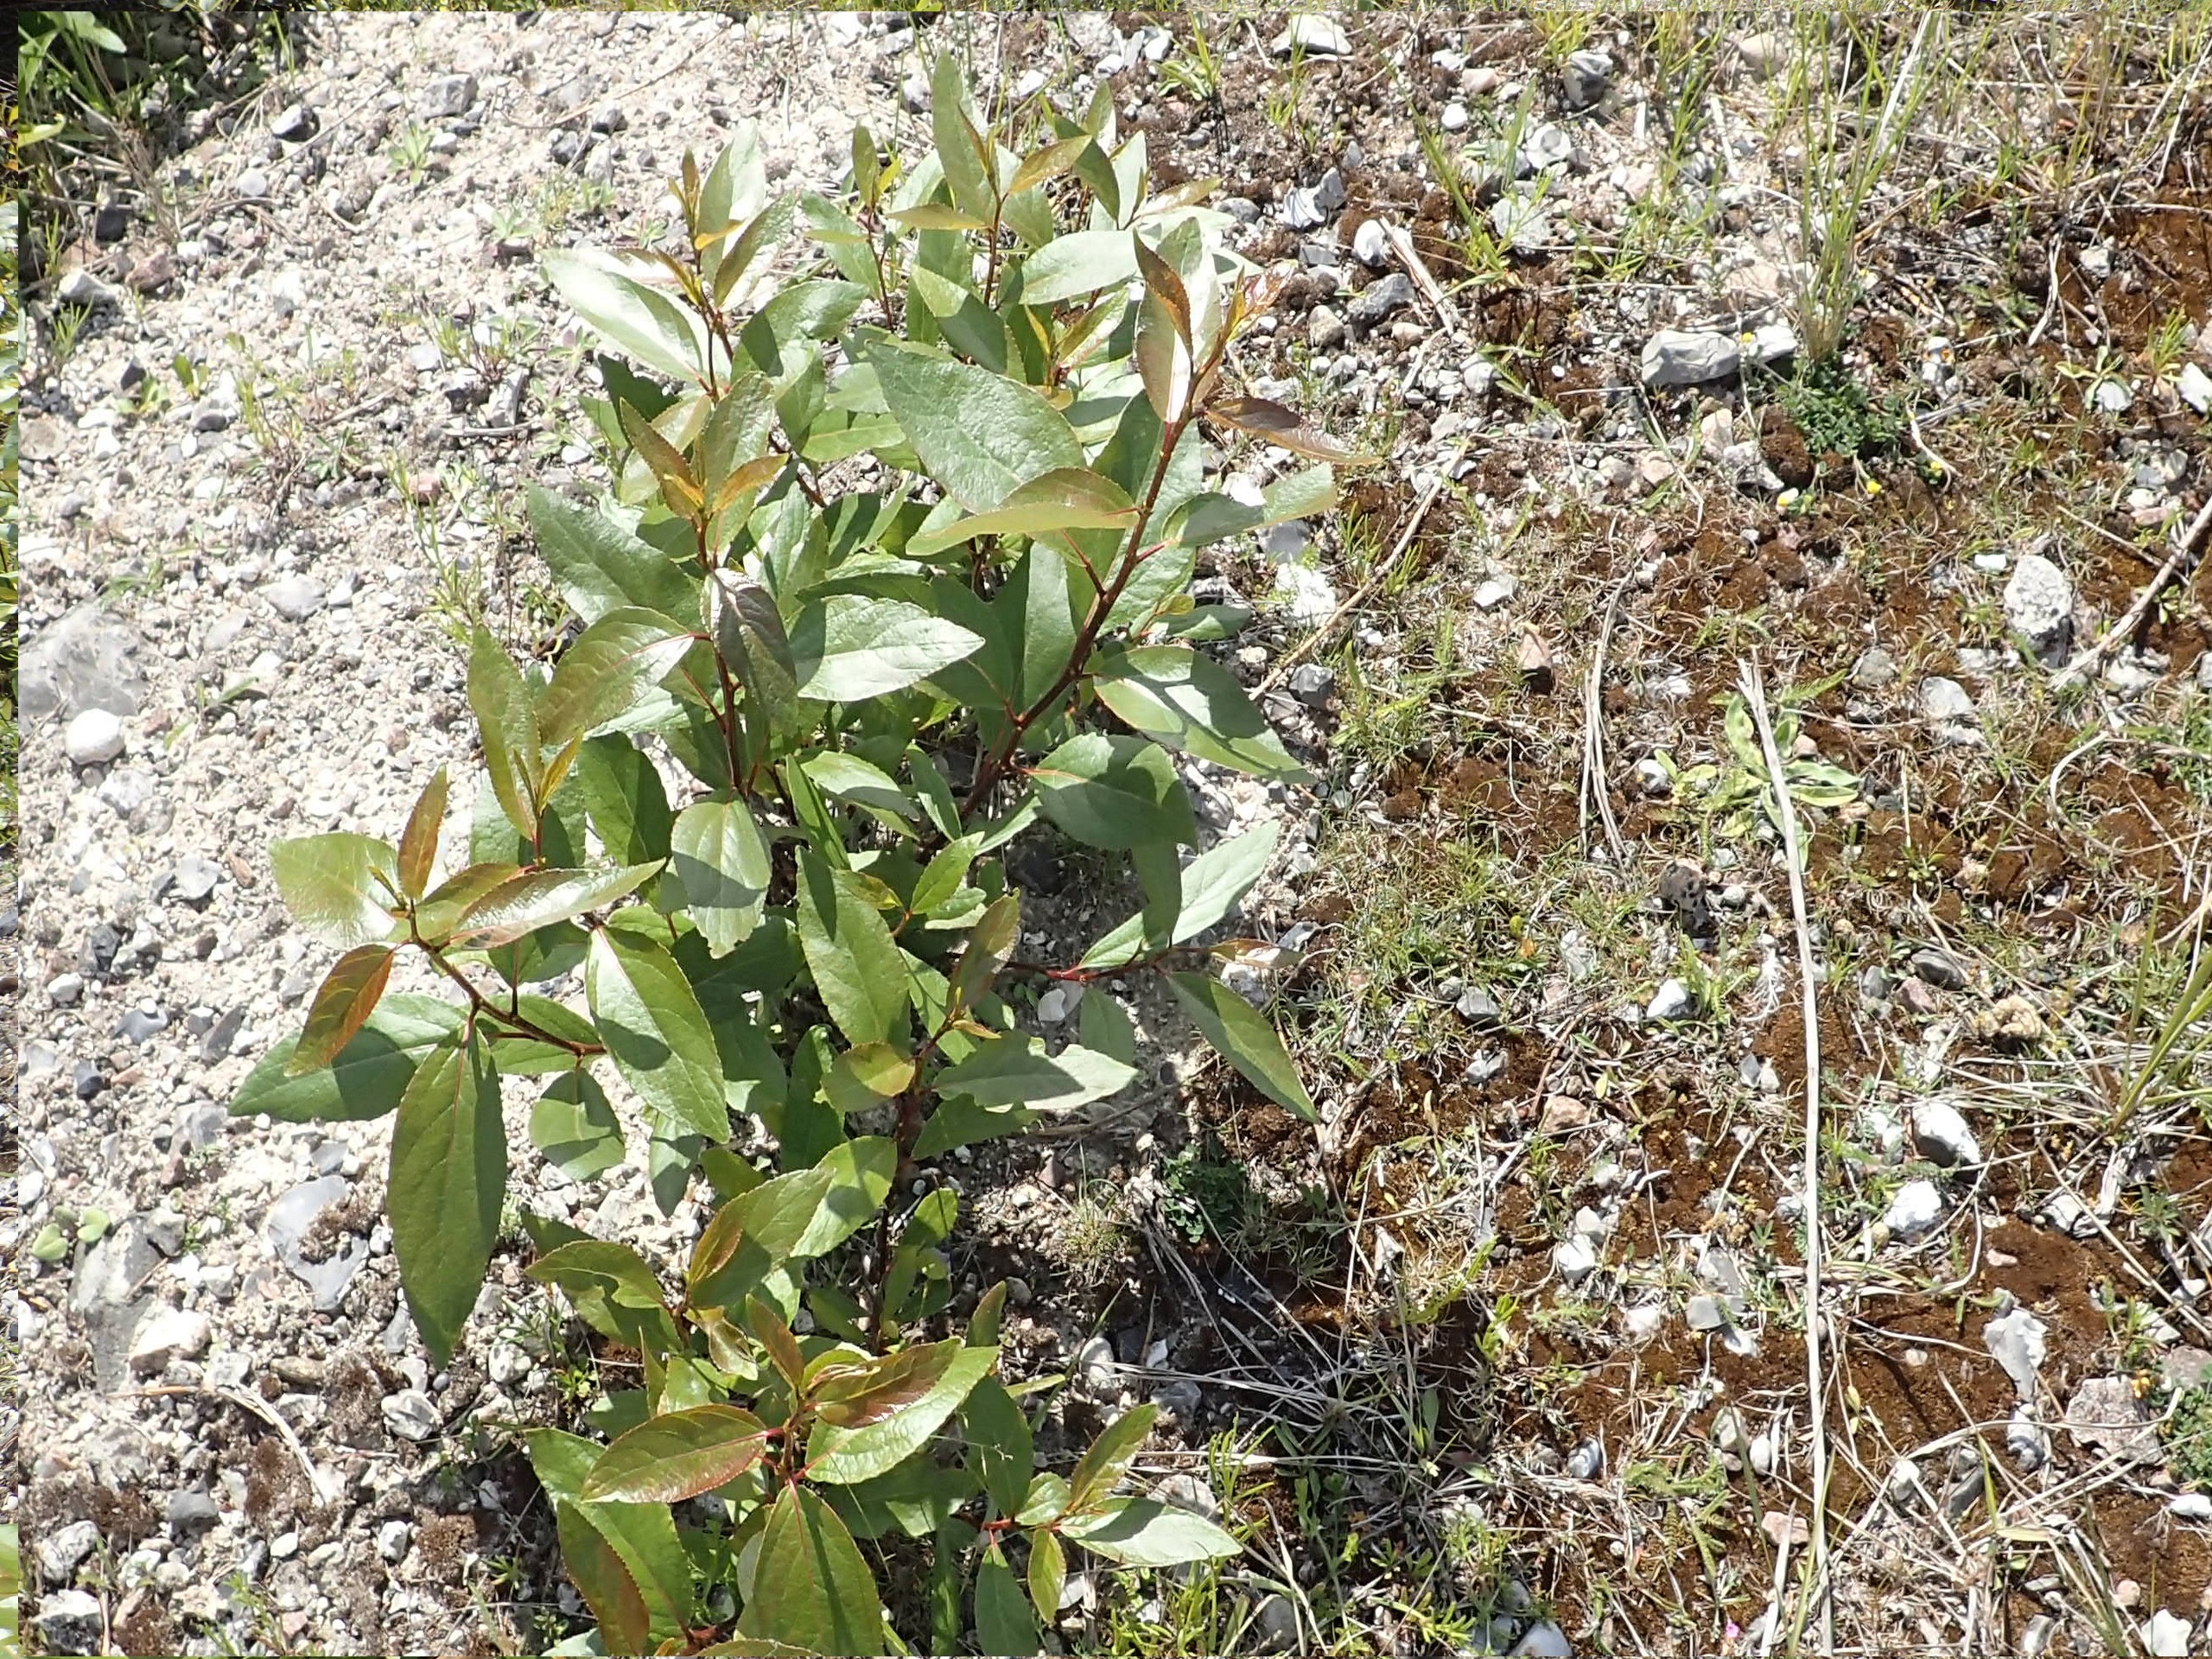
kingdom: Plantae
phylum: Tracheophyta
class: Magnoliopsida
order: Malpighiales
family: Salicaceae
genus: Populus
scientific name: Populus balsamifera
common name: Balsam-poppel
